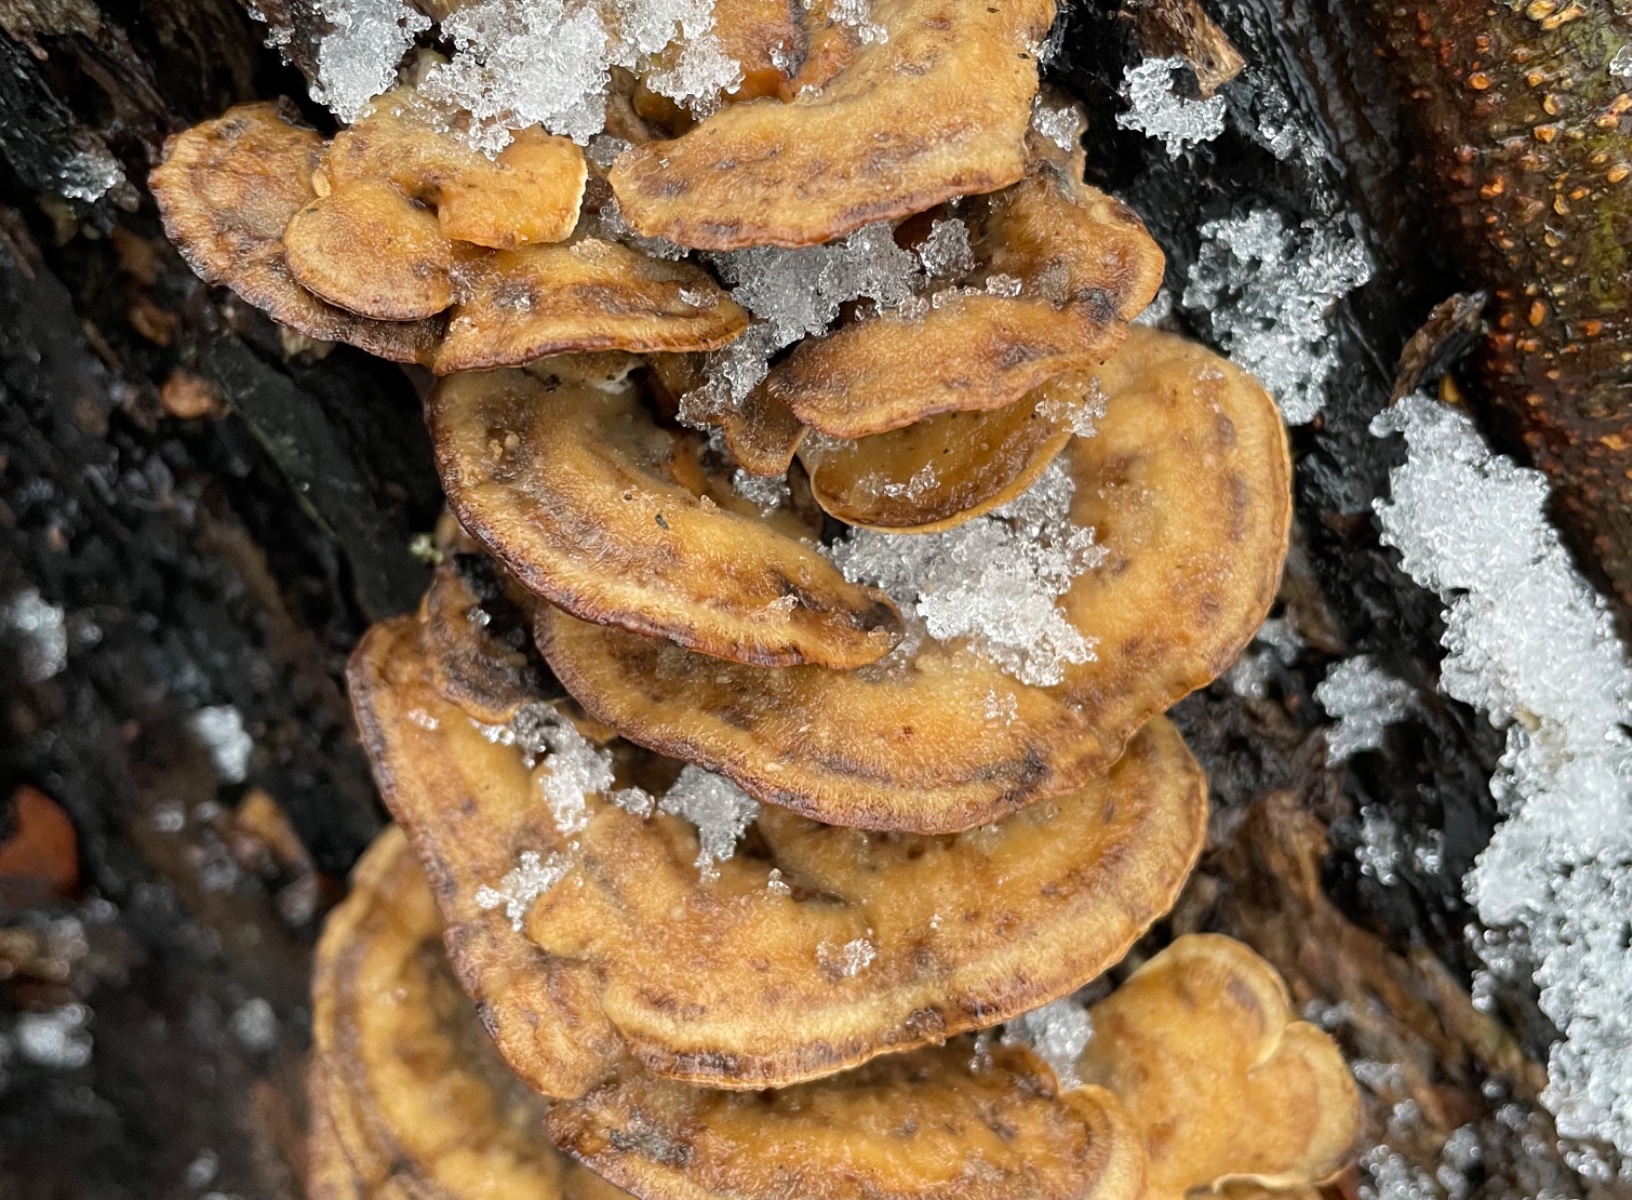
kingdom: Fungi
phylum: Basidiomycota
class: Agaricomycetes
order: Polyporales
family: Phanerochaetaceae
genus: Bjerkandera
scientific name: Bjerkandera adusta
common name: sveden sodporesvamp
